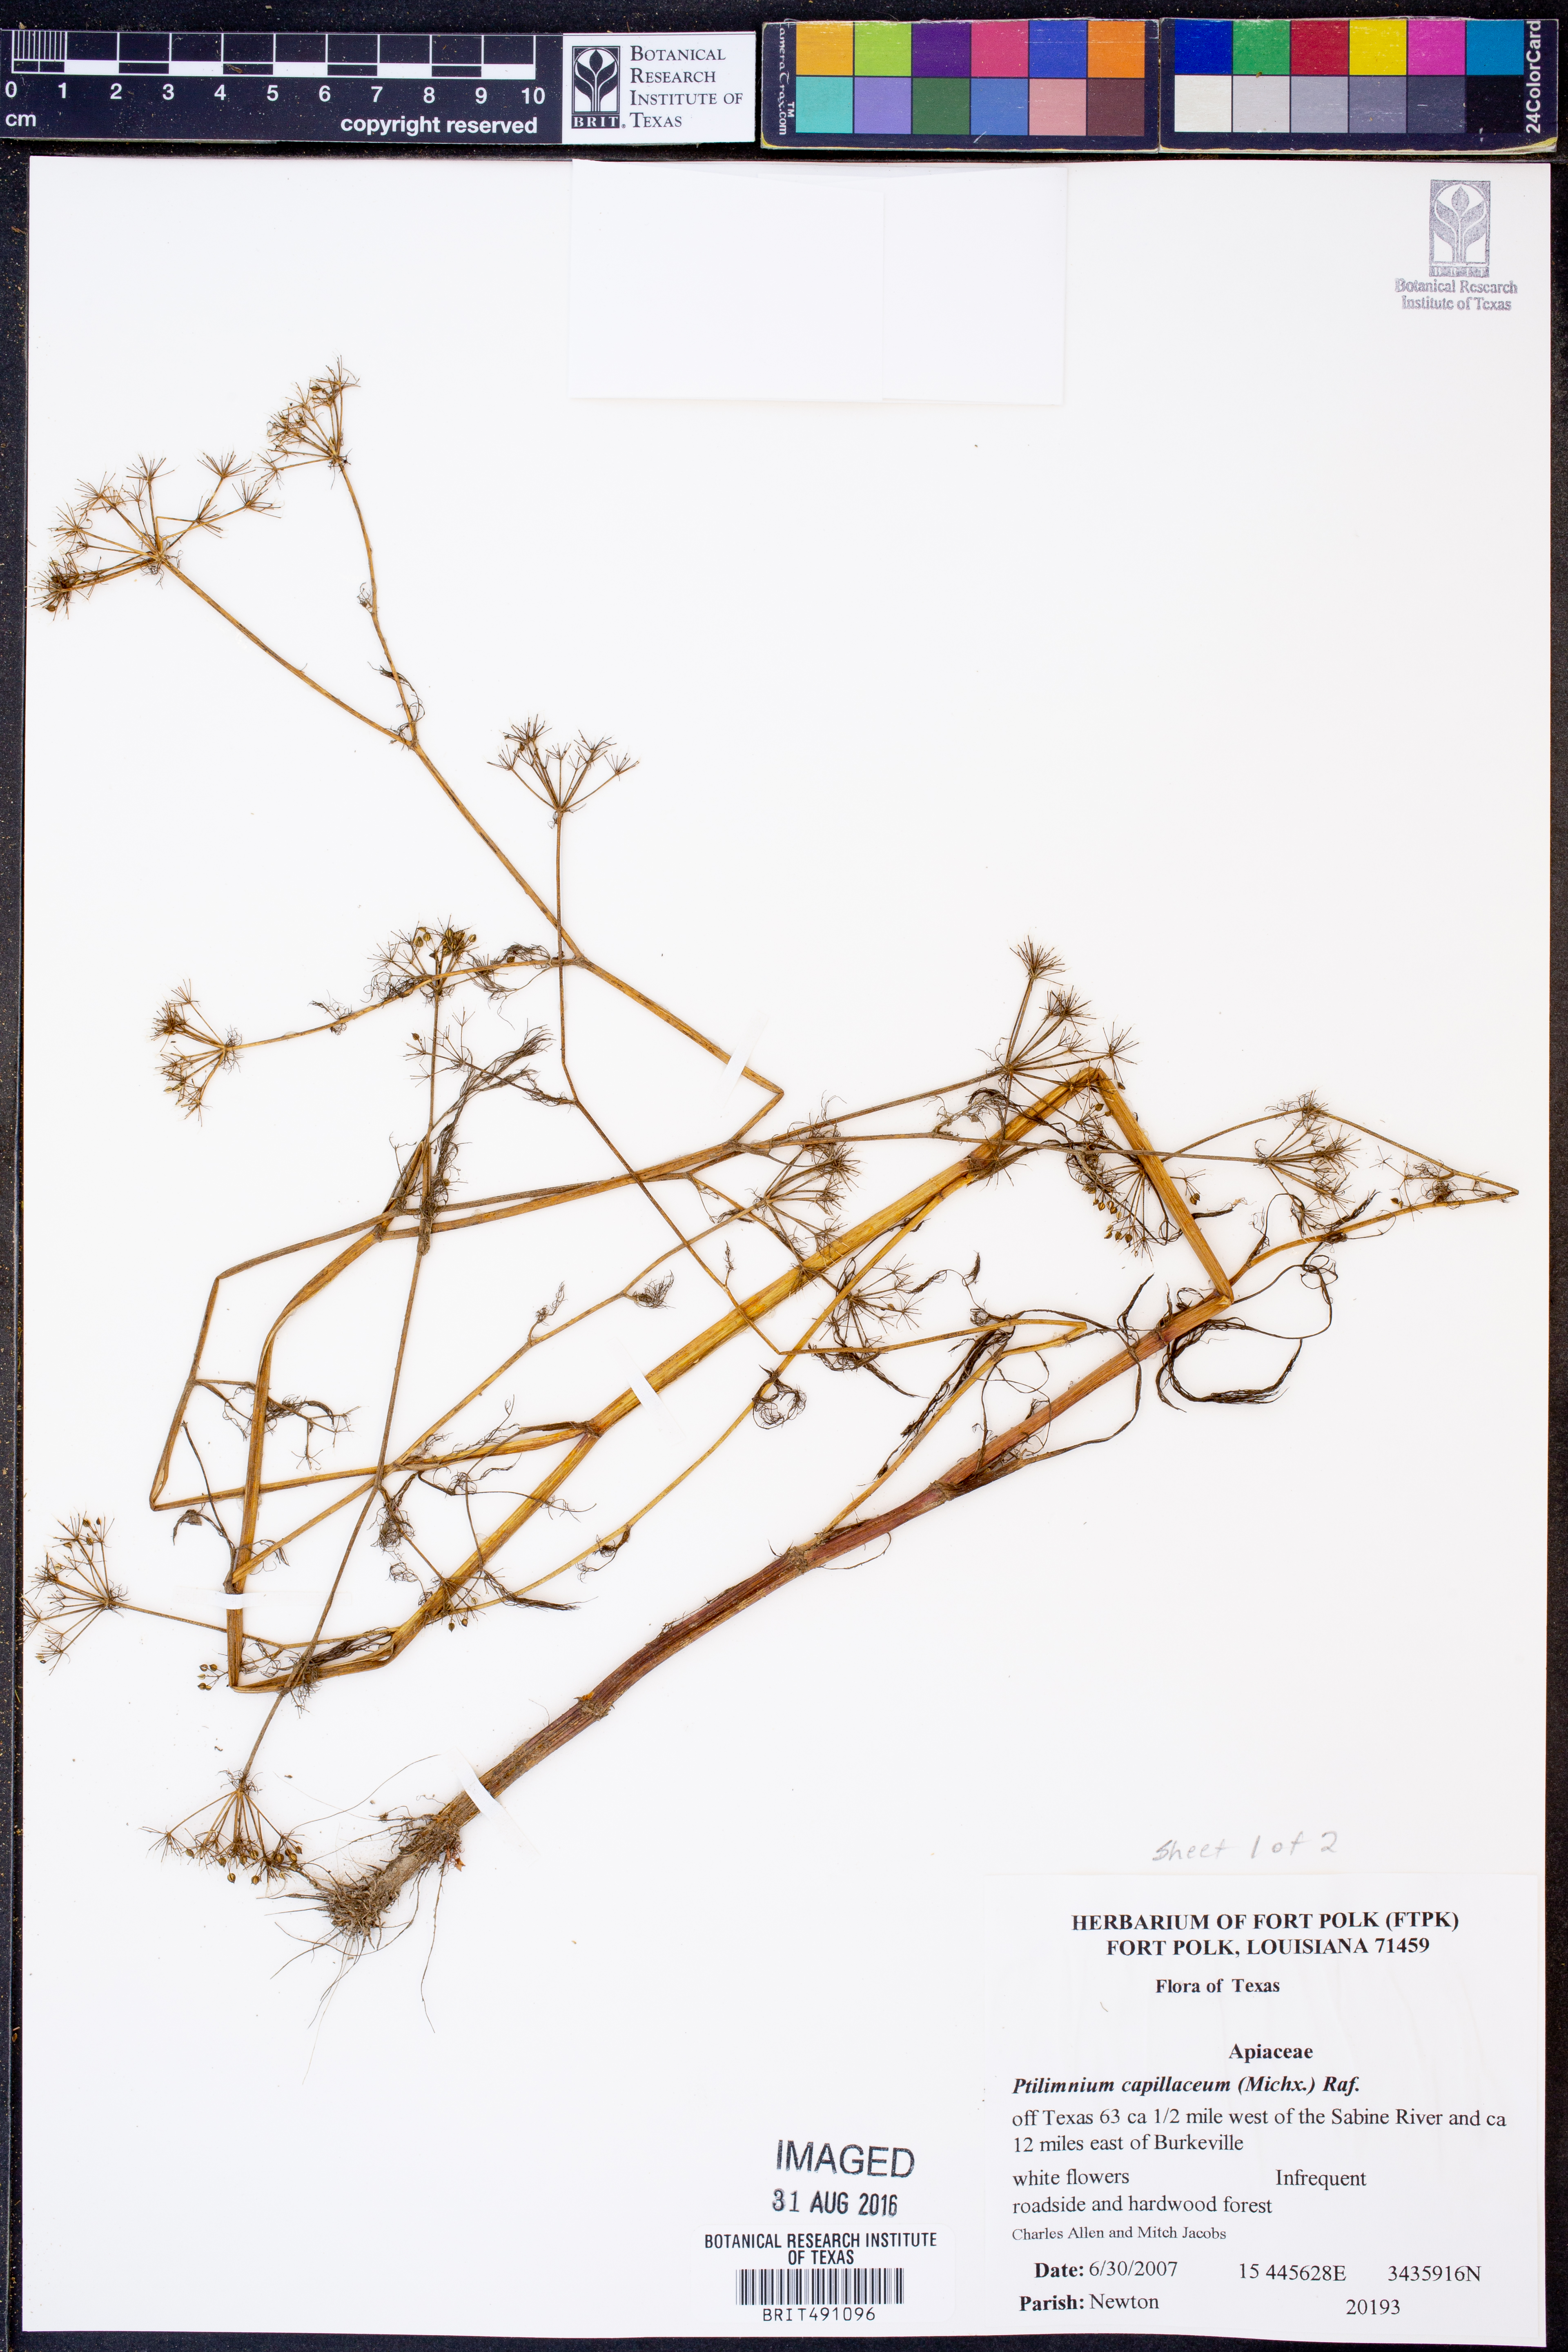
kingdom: Plantae
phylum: Tracheophyta
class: Magnoliopsida
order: Apiales
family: Apiaceae
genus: Ptilimnium
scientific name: Ptilimnium capillaceum
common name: Herbwilliam
